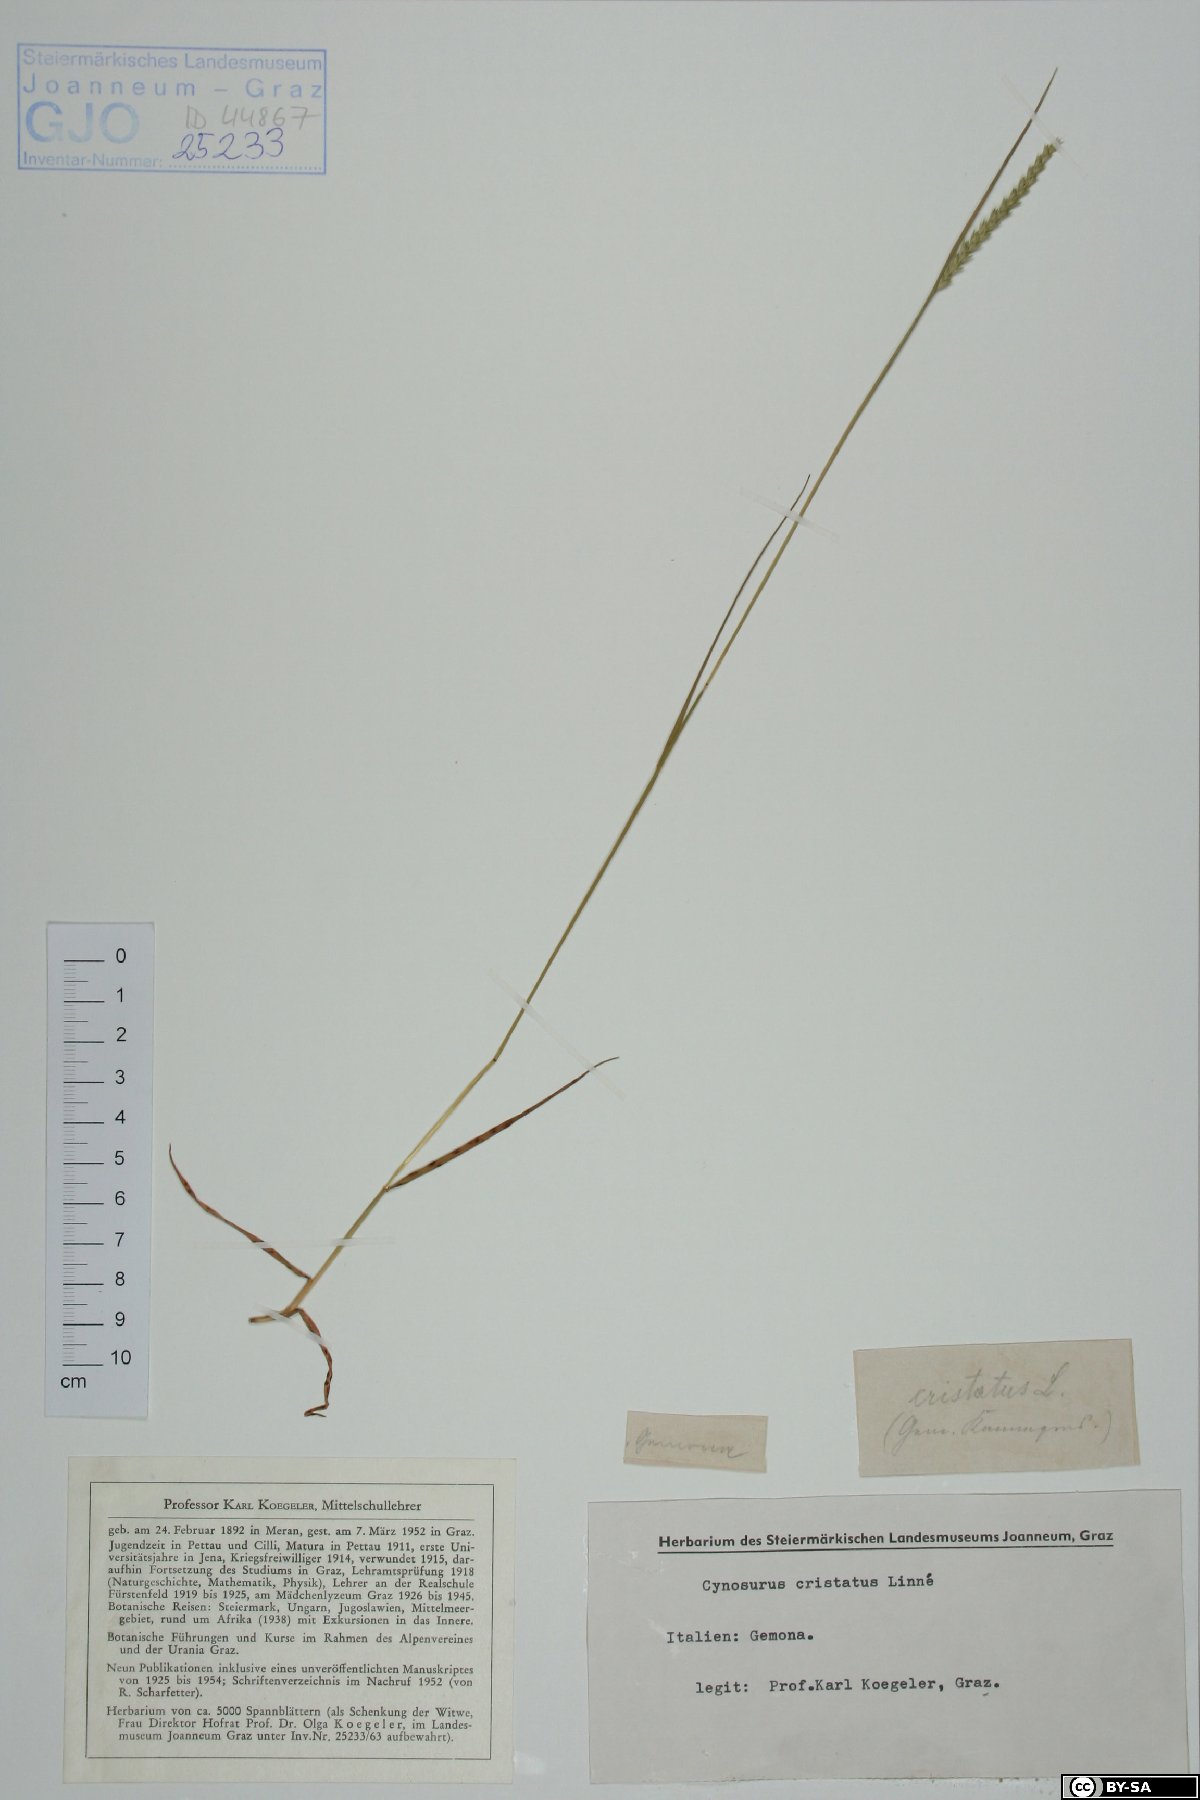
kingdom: Plantae
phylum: Tracheophyta
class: Liliopsida
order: Poales
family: Poaceae
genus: Cynosurus
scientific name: Cynosurus cristatus
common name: Crested dog's-tail
